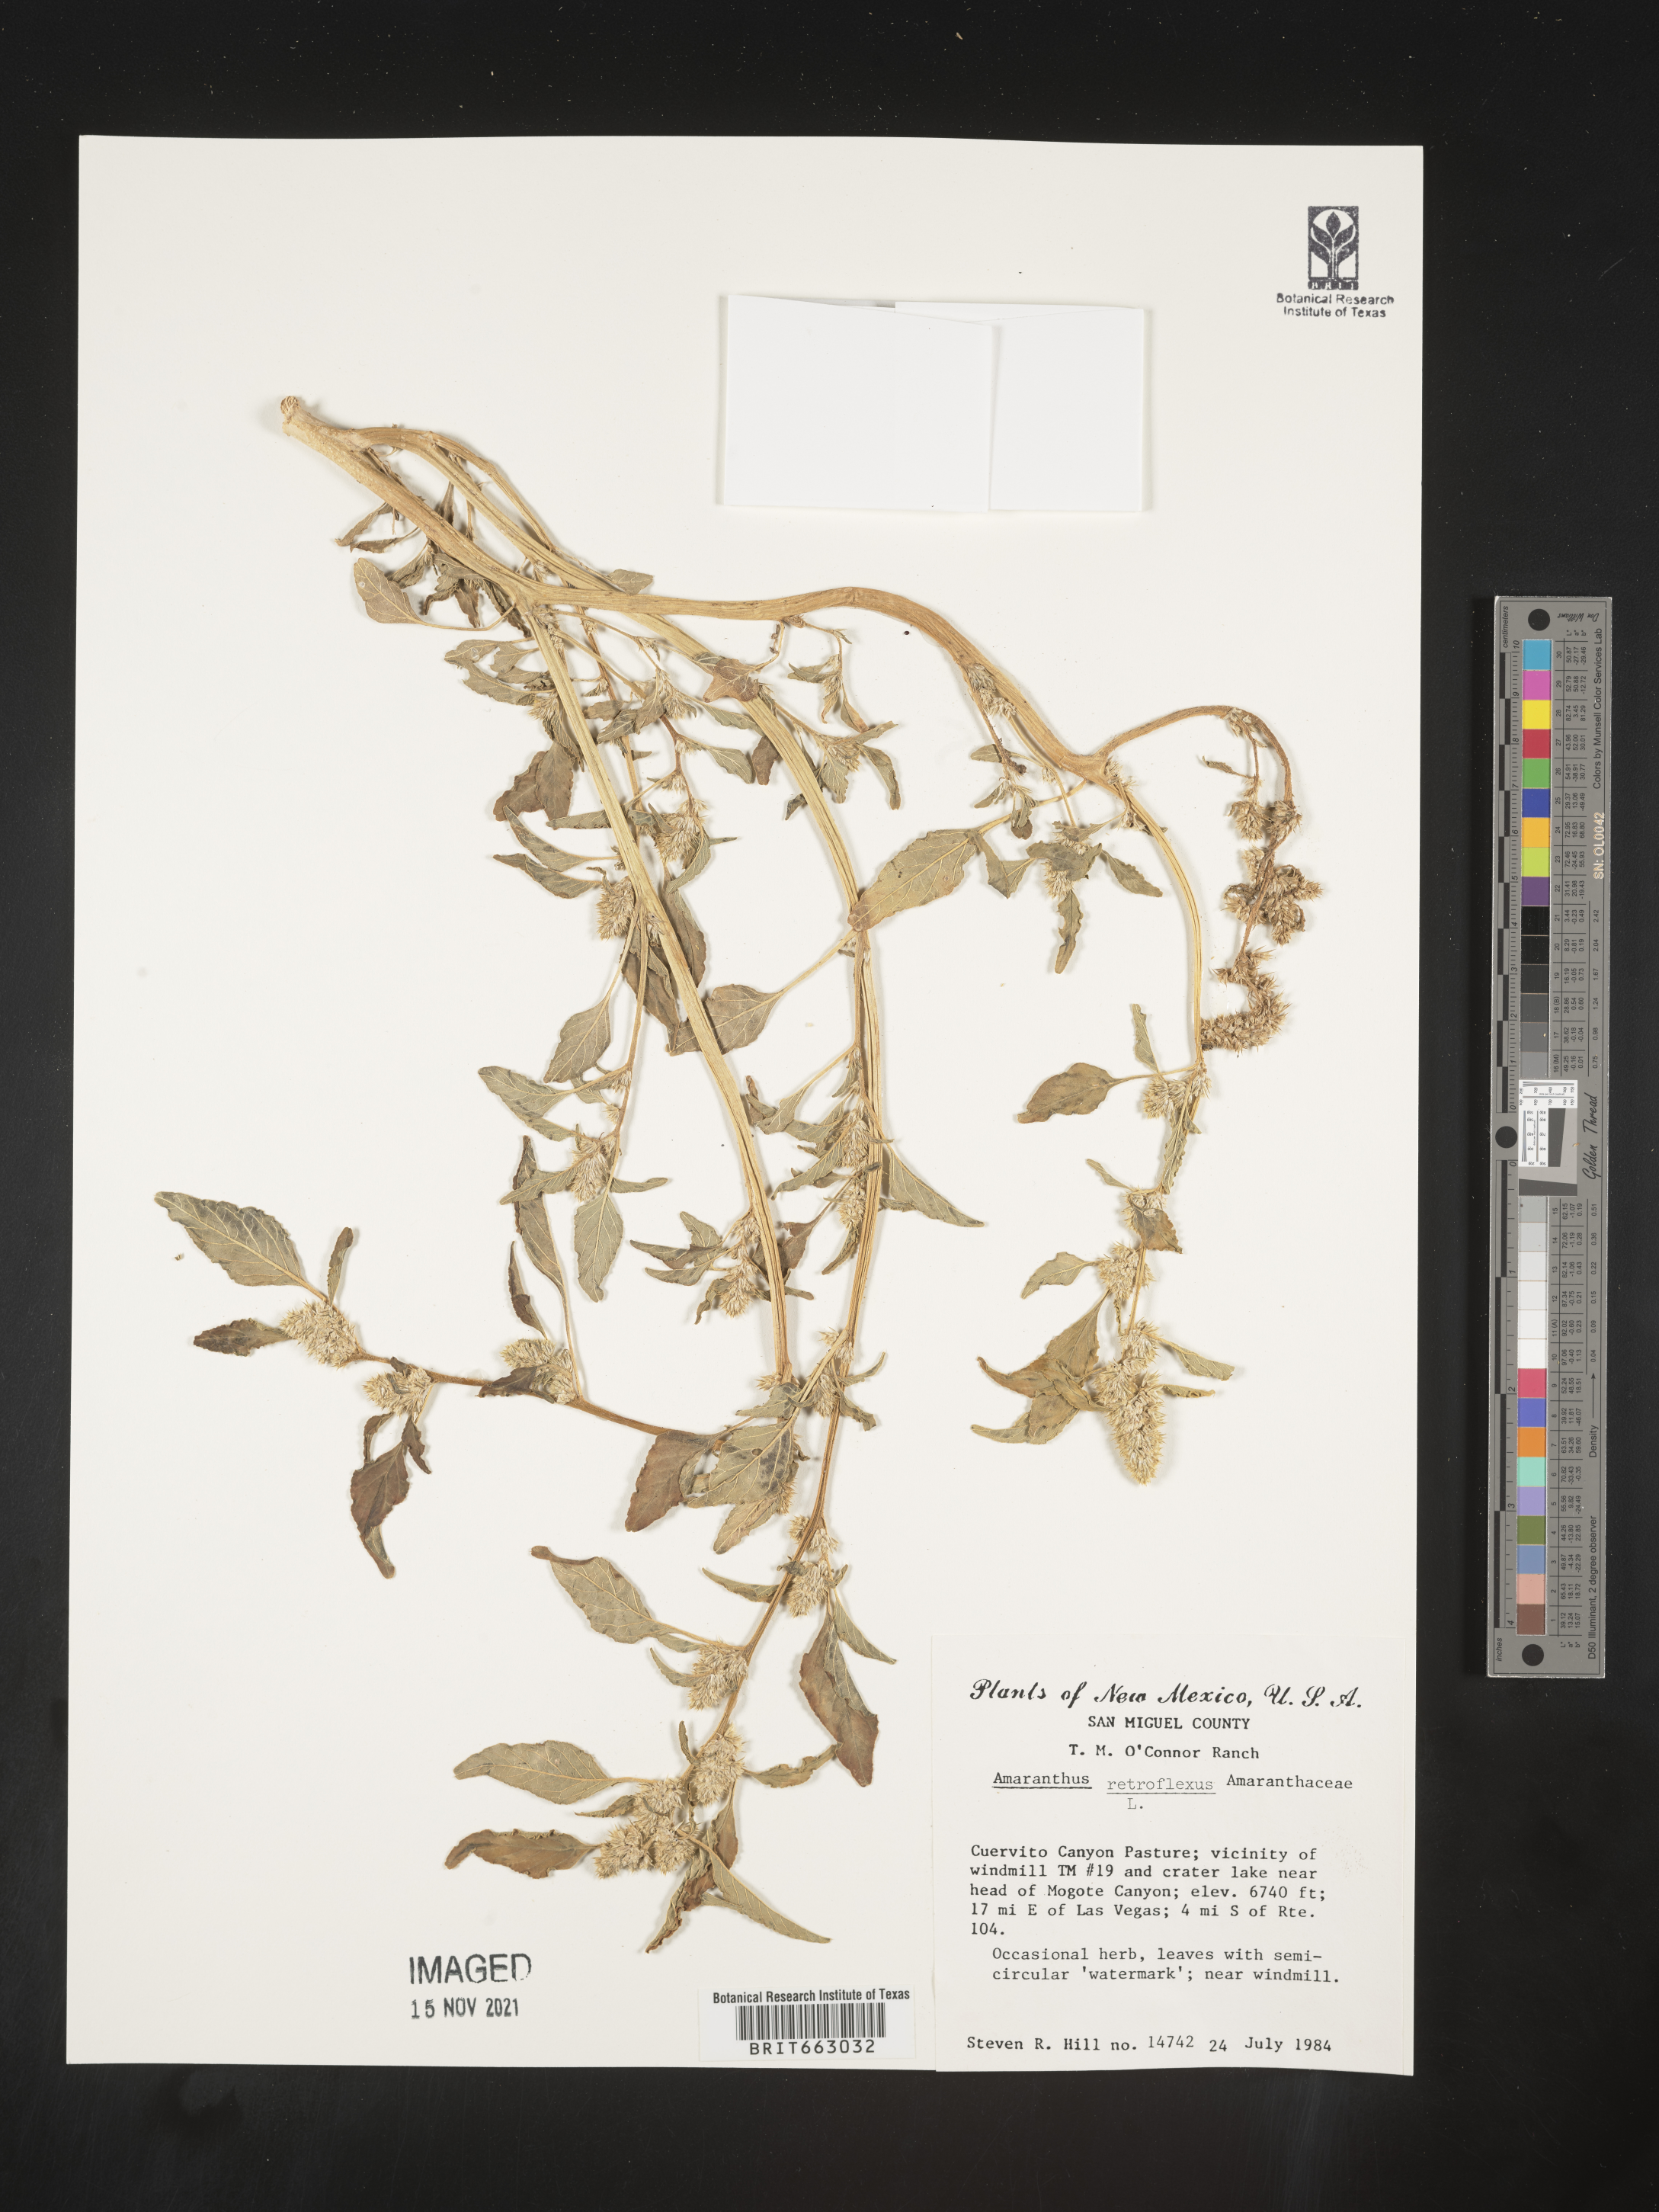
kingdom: Plantae
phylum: Tracheophyta
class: Magnoliopsida
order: Caryophyllales
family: Amaranthaceae
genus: Amaranthus
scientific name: Amaranthus retroflexus
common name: Redroot amaranth
